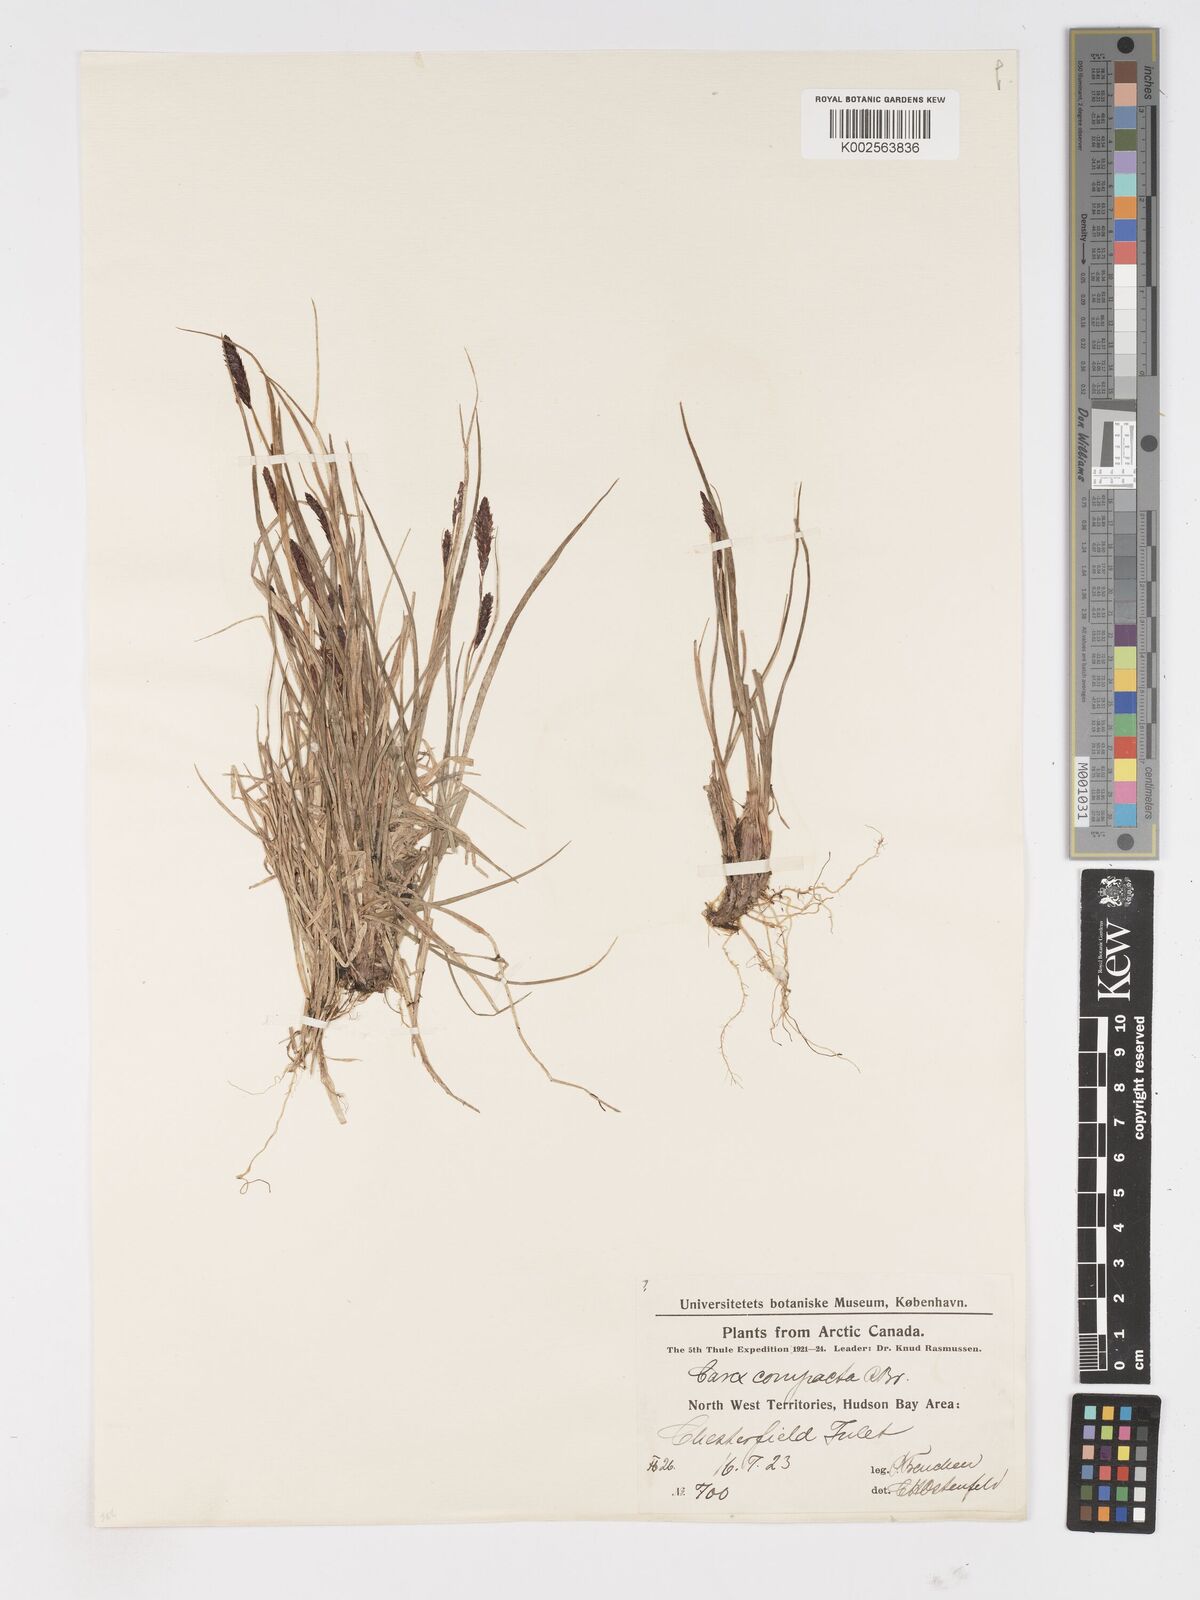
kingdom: Plantae
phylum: Tracheophyta
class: Liliopsida
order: Poales
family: Cyperaceae
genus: Carex
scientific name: Carex membranacea
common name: Fragile sedge
